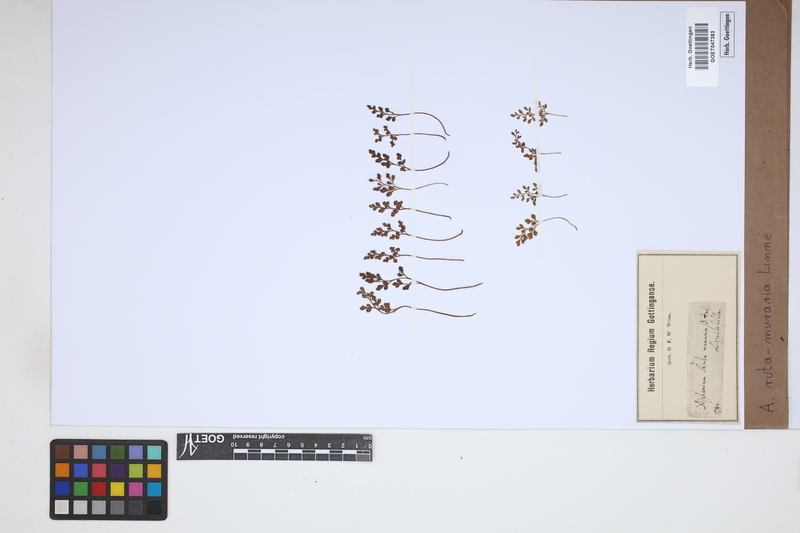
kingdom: Plantae
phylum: Tracheophyta
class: Polypodiopsida
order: Polypodiales
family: Aspleniaceae
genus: Asplenium
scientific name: Asplenium ruta-muraria
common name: Wall-rue
